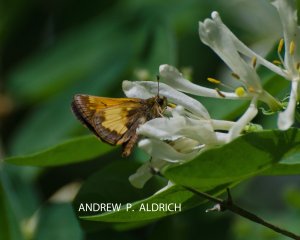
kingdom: Animalia
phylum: Arthropoda
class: Insecta
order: Lepidoptera
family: Hesperiidae
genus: Lon
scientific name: Lon hobomok
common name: Hobomok Skipper
